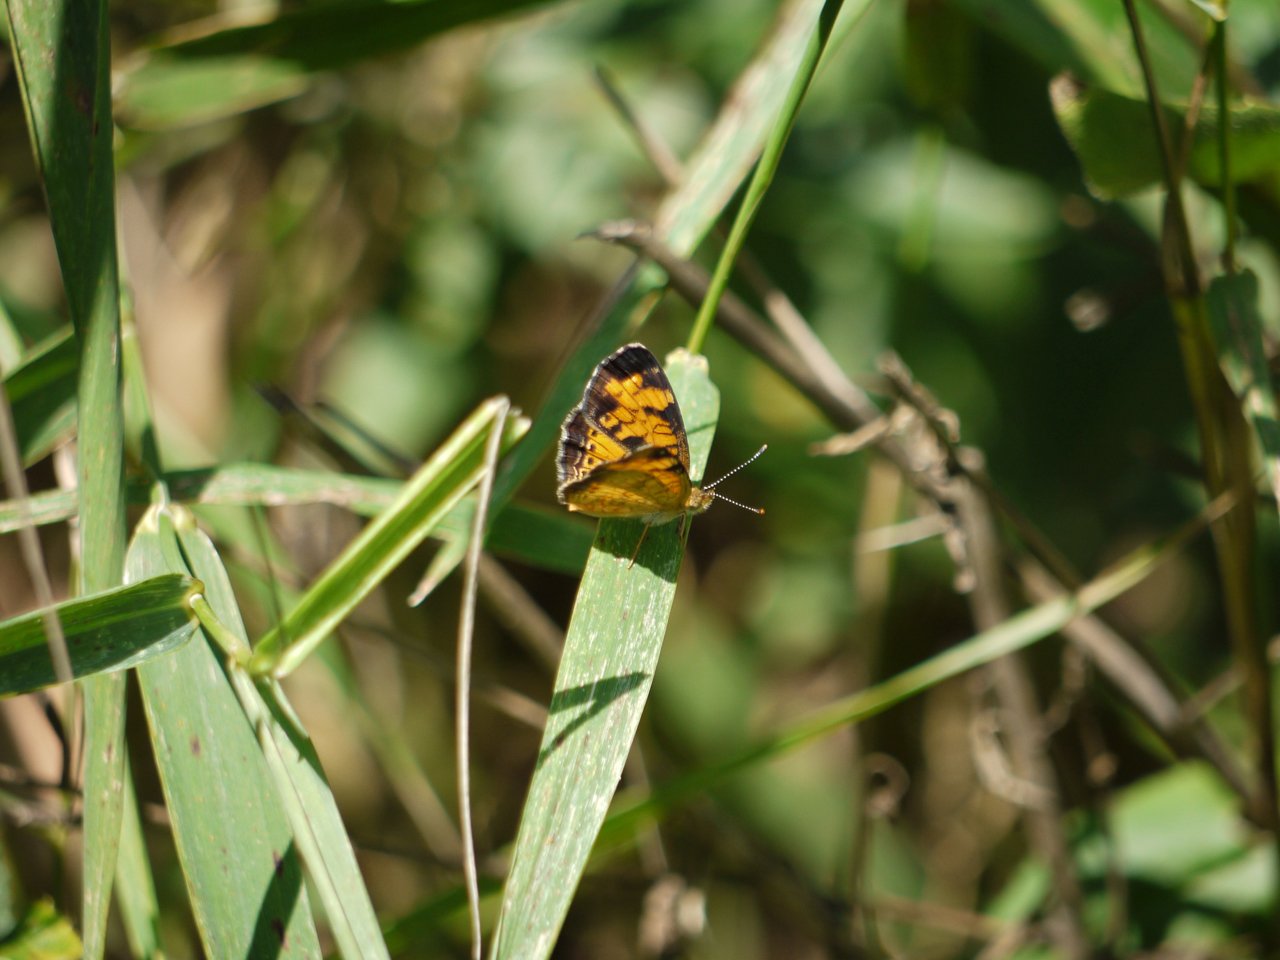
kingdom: Animalia
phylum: Arthropoda
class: Insecta
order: Lepidoptera
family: Nymphalidae
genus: Phyciodes
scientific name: Phyciodes
